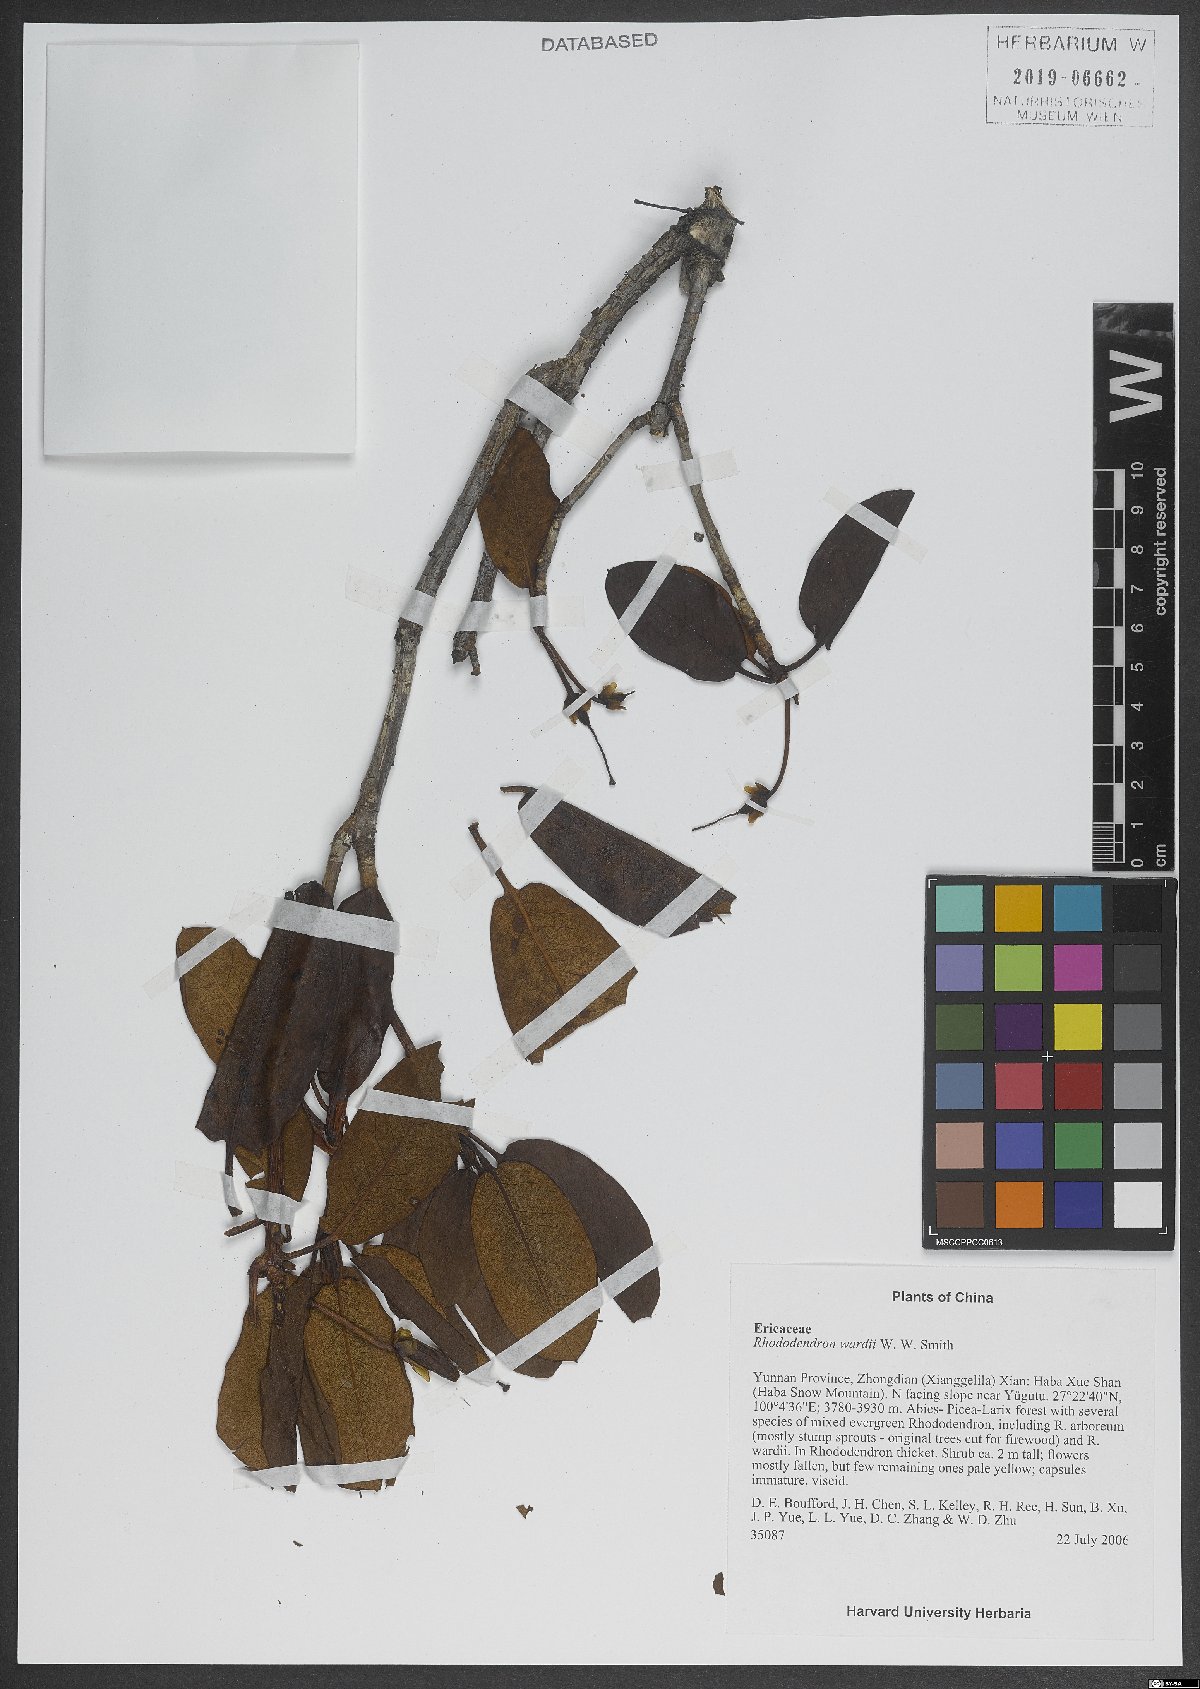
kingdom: Plantae
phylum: Tracheophyta
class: Magnoliopsida
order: Ericales
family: Ericaceae
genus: Rhododendron
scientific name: Rhododendron wardii
